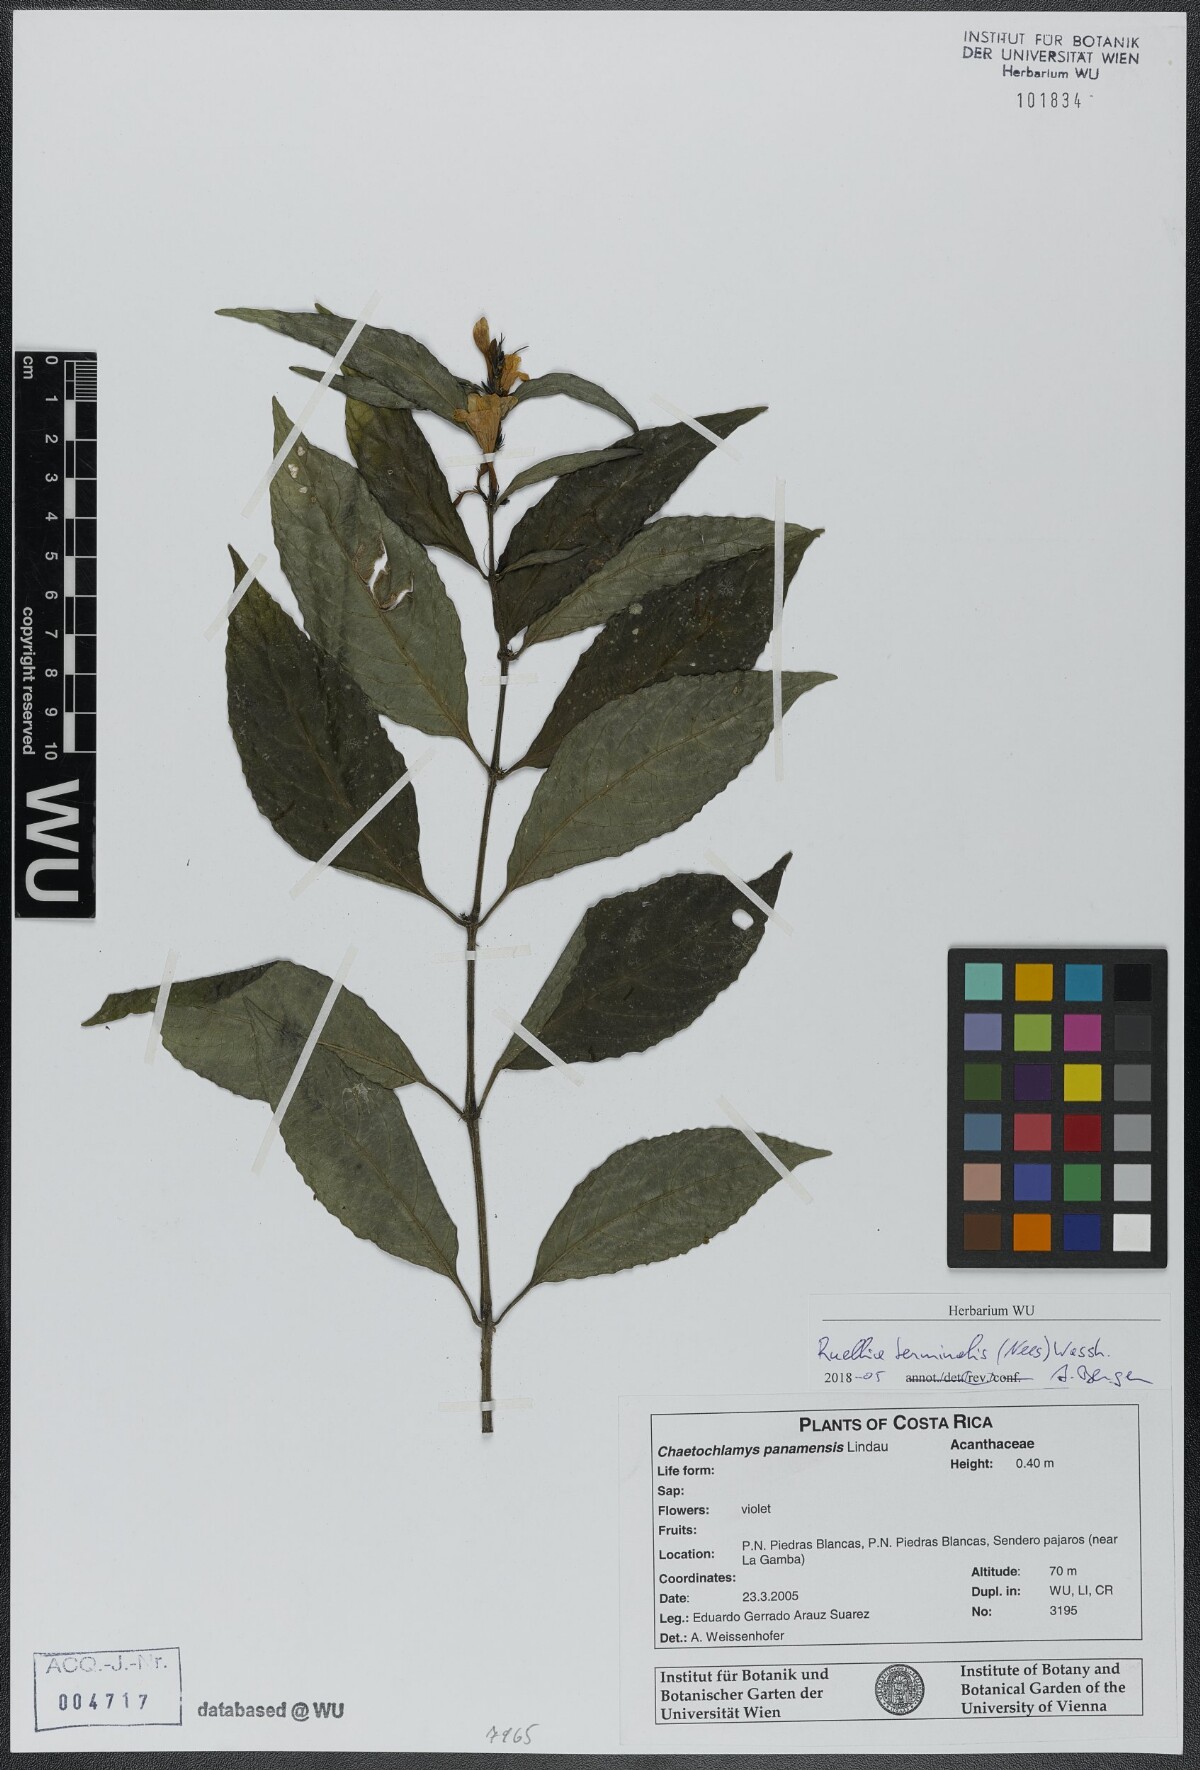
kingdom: Plantae
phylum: Tracheophyta
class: Magnoliopsida
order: Lamiales
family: Acanthaceae
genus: Ruellia
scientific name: Ruellia terminalis
